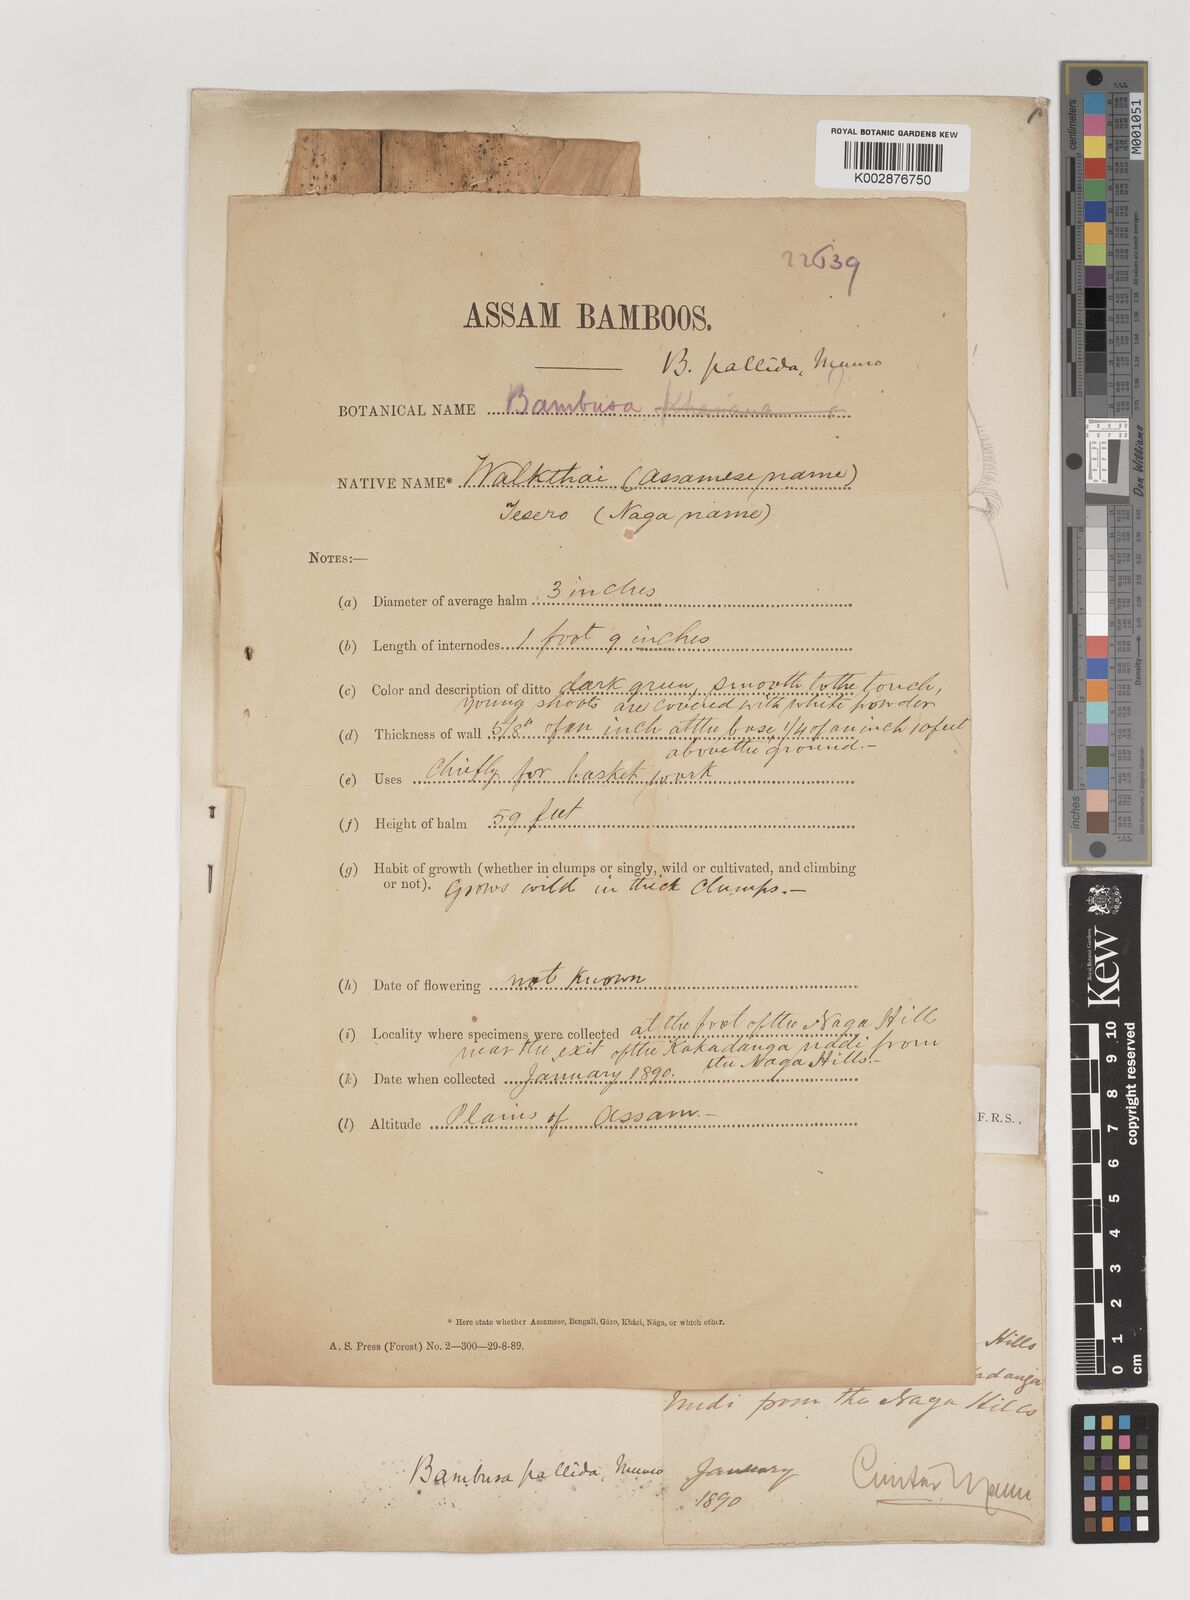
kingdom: Plantae
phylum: Tracheophyta
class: Liliopsida
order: Poales
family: Poaceae
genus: Bambusa
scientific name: Bambusa pallida
